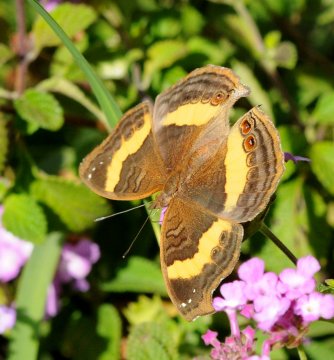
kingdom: Animalia
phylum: Arthropoda
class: Insecta
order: Lepidoptera
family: Nymphalidae
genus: Junonia
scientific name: Junonia terea
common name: Soldier Pansy
